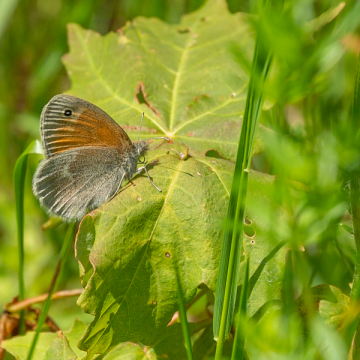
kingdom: Animalia
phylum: Arthropoda
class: Insecta
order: Lepidoptera
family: Nymphalidae
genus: Coenonympha
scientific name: Coenonympha california
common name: California Ringlet
